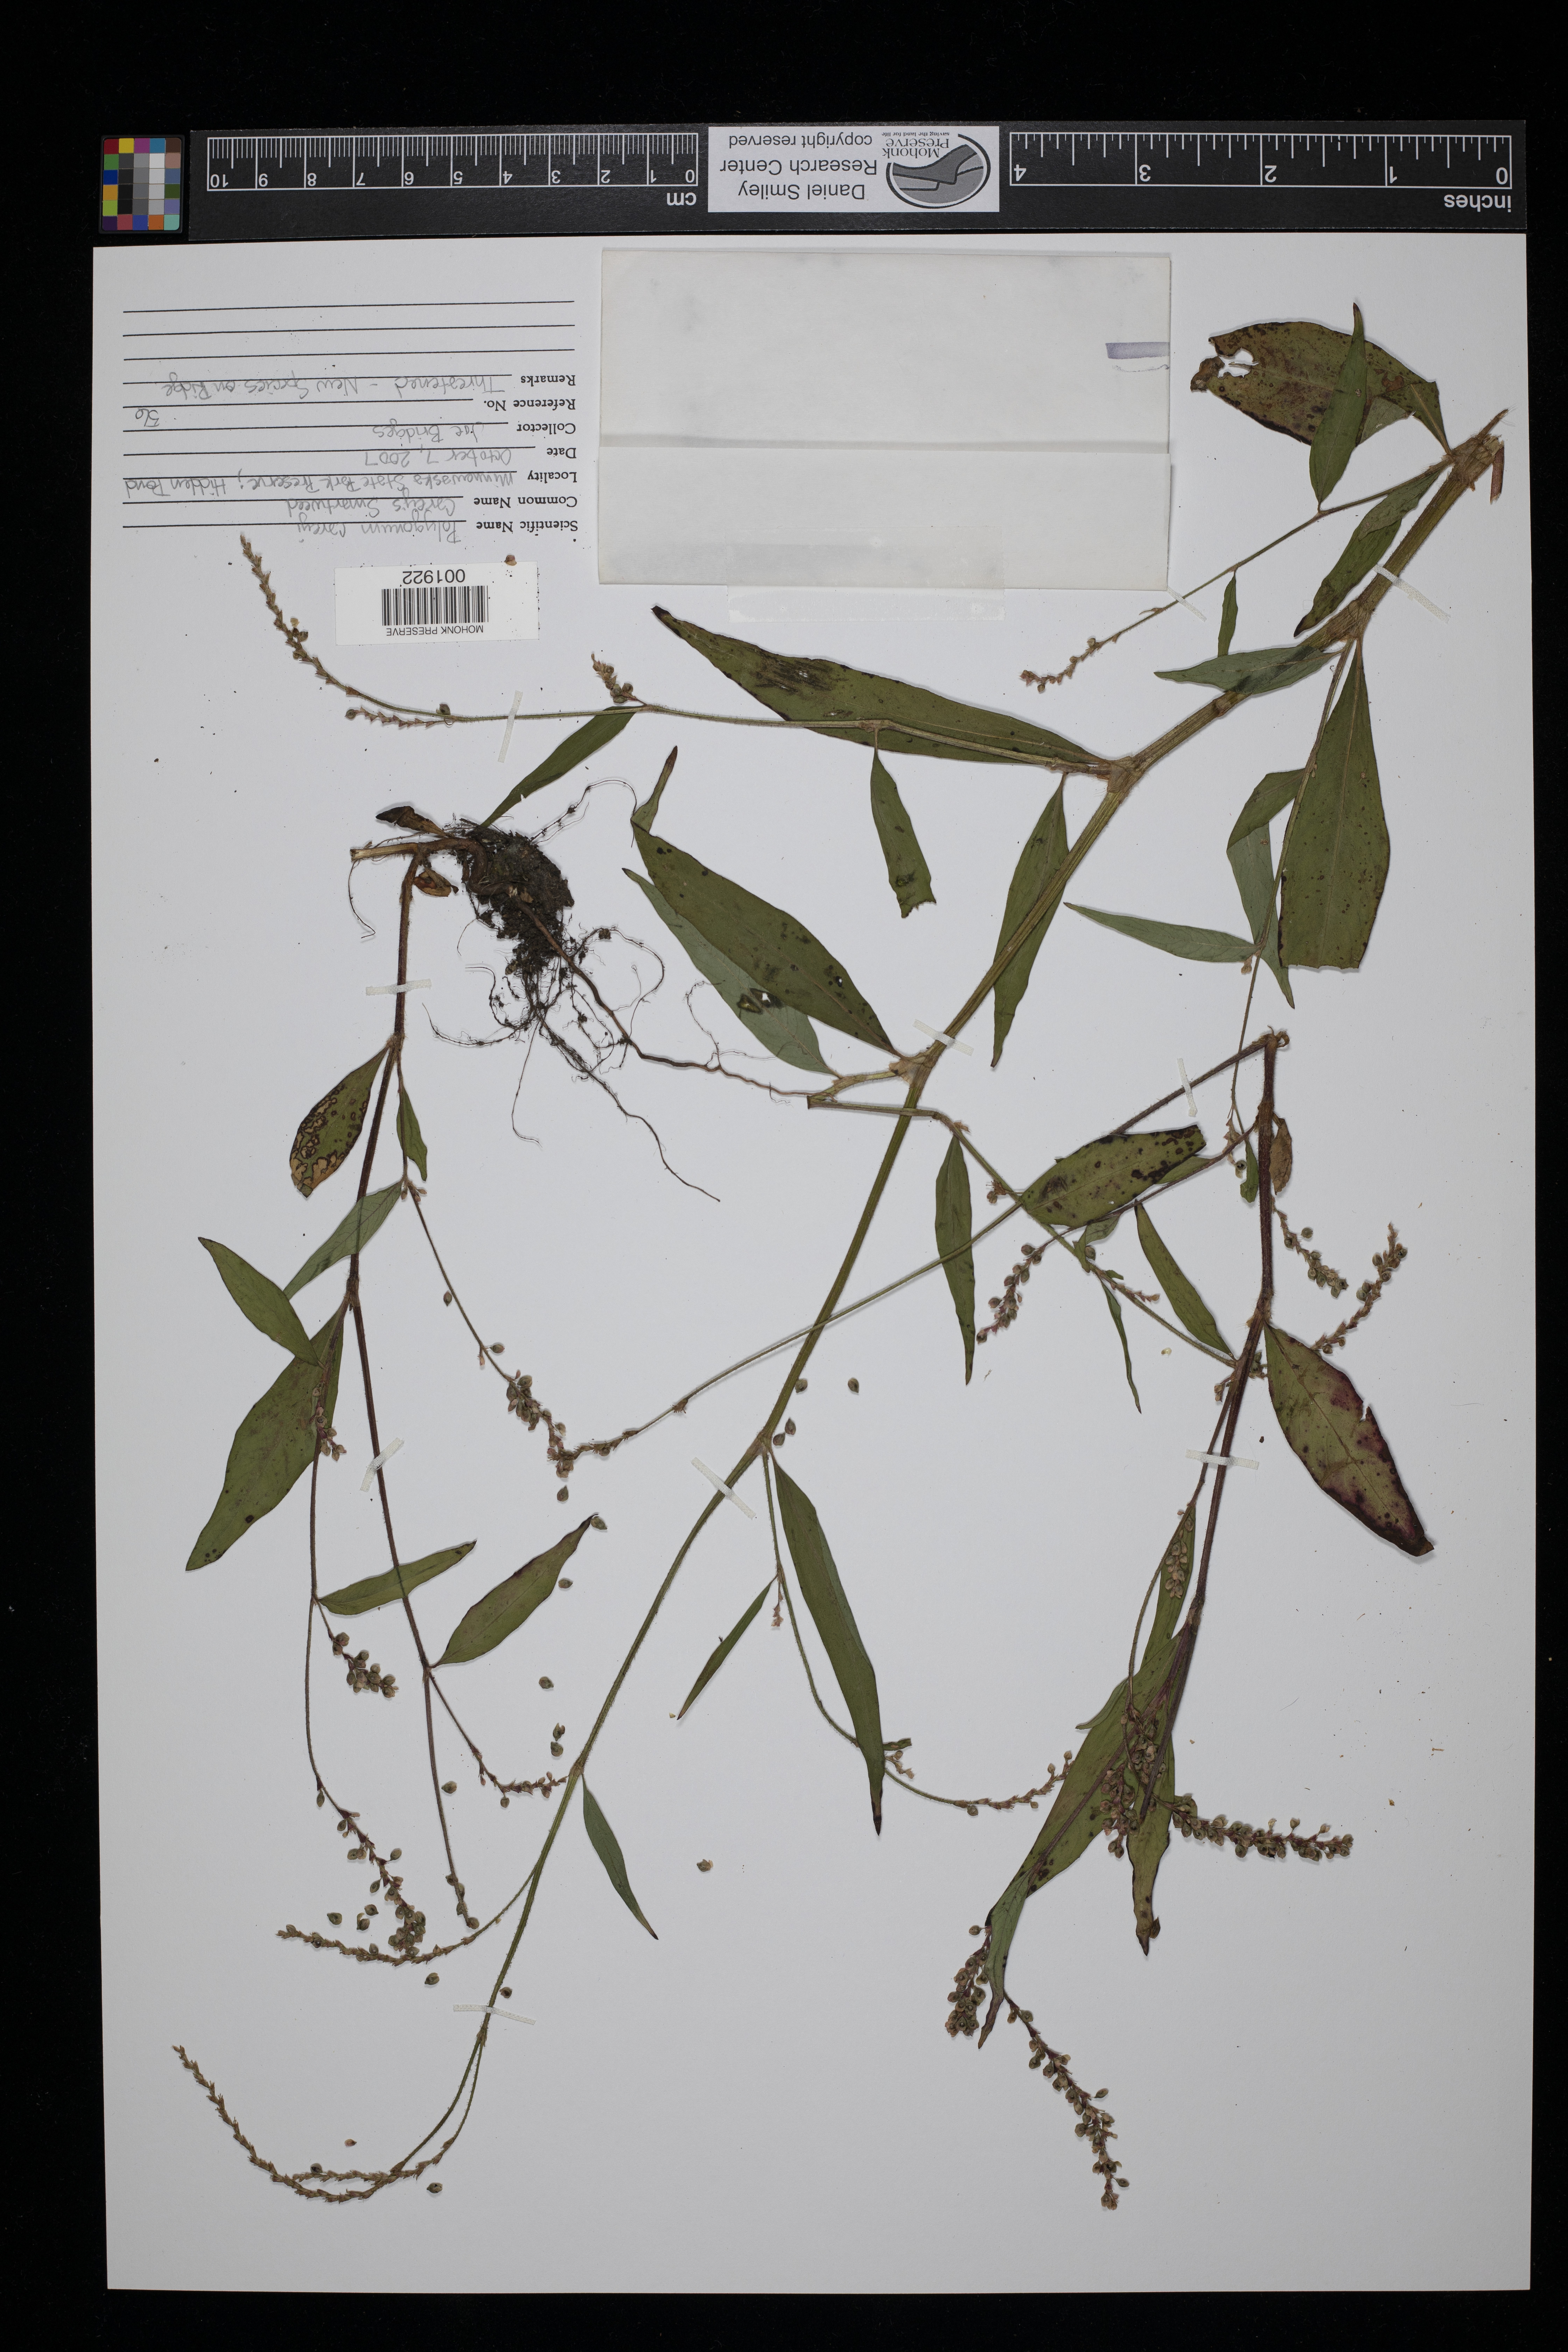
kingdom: Plantae
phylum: Tracheophyta
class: Magnoliopsida
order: Caryophyllales
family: Polygonaceae
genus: Persicaria
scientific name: Persicaria careyi
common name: Carey's smartweed
